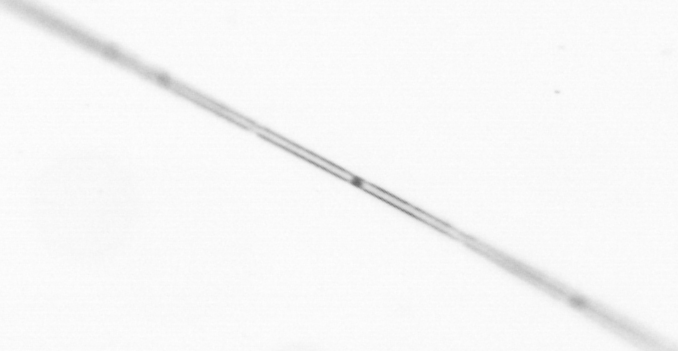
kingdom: Chromista
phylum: Ochrophyta
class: Bacillariophyceae
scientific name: Bacillariophyceae
